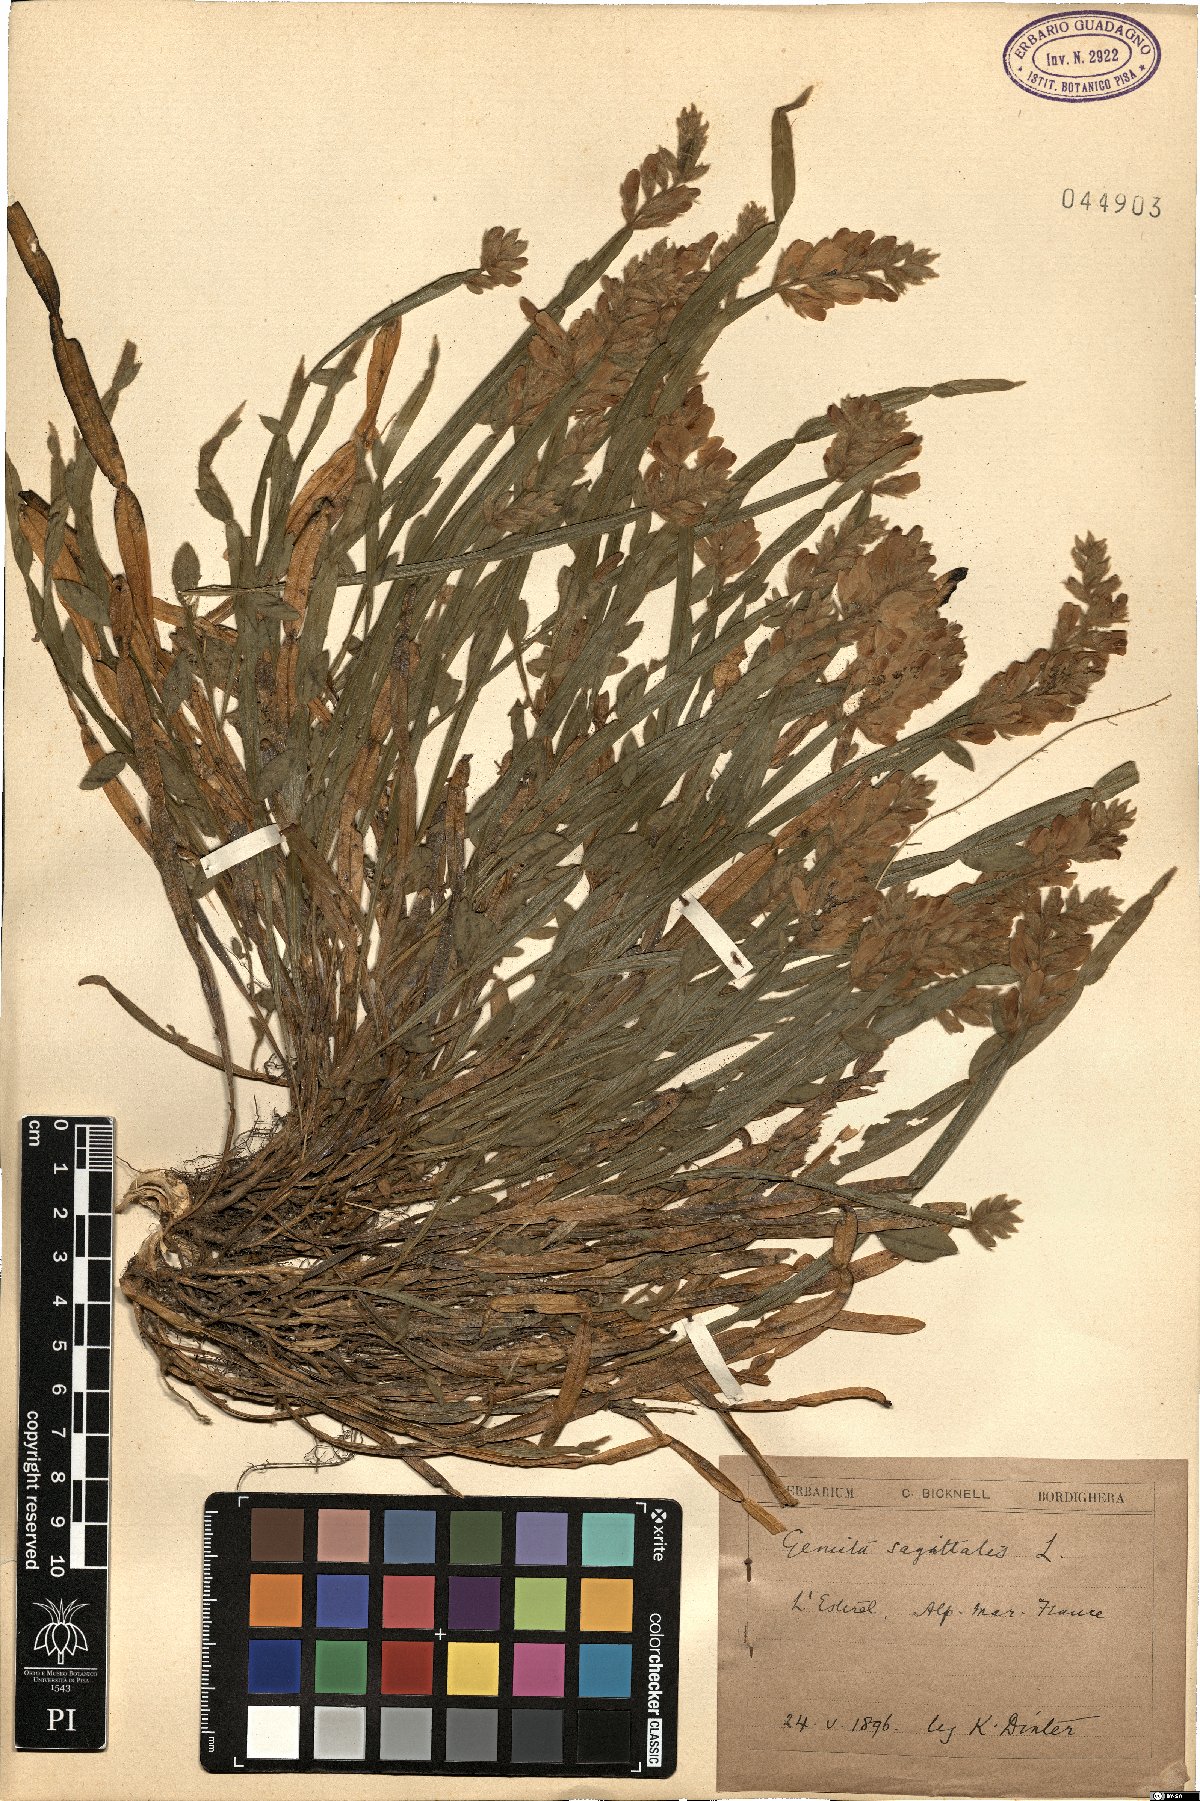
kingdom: Plantae
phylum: Tracheophyta
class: Magnoliopsida
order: Fabales
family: Fabaceae
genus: Genista
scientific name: Genista sagittalis
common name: Winged greenweed
